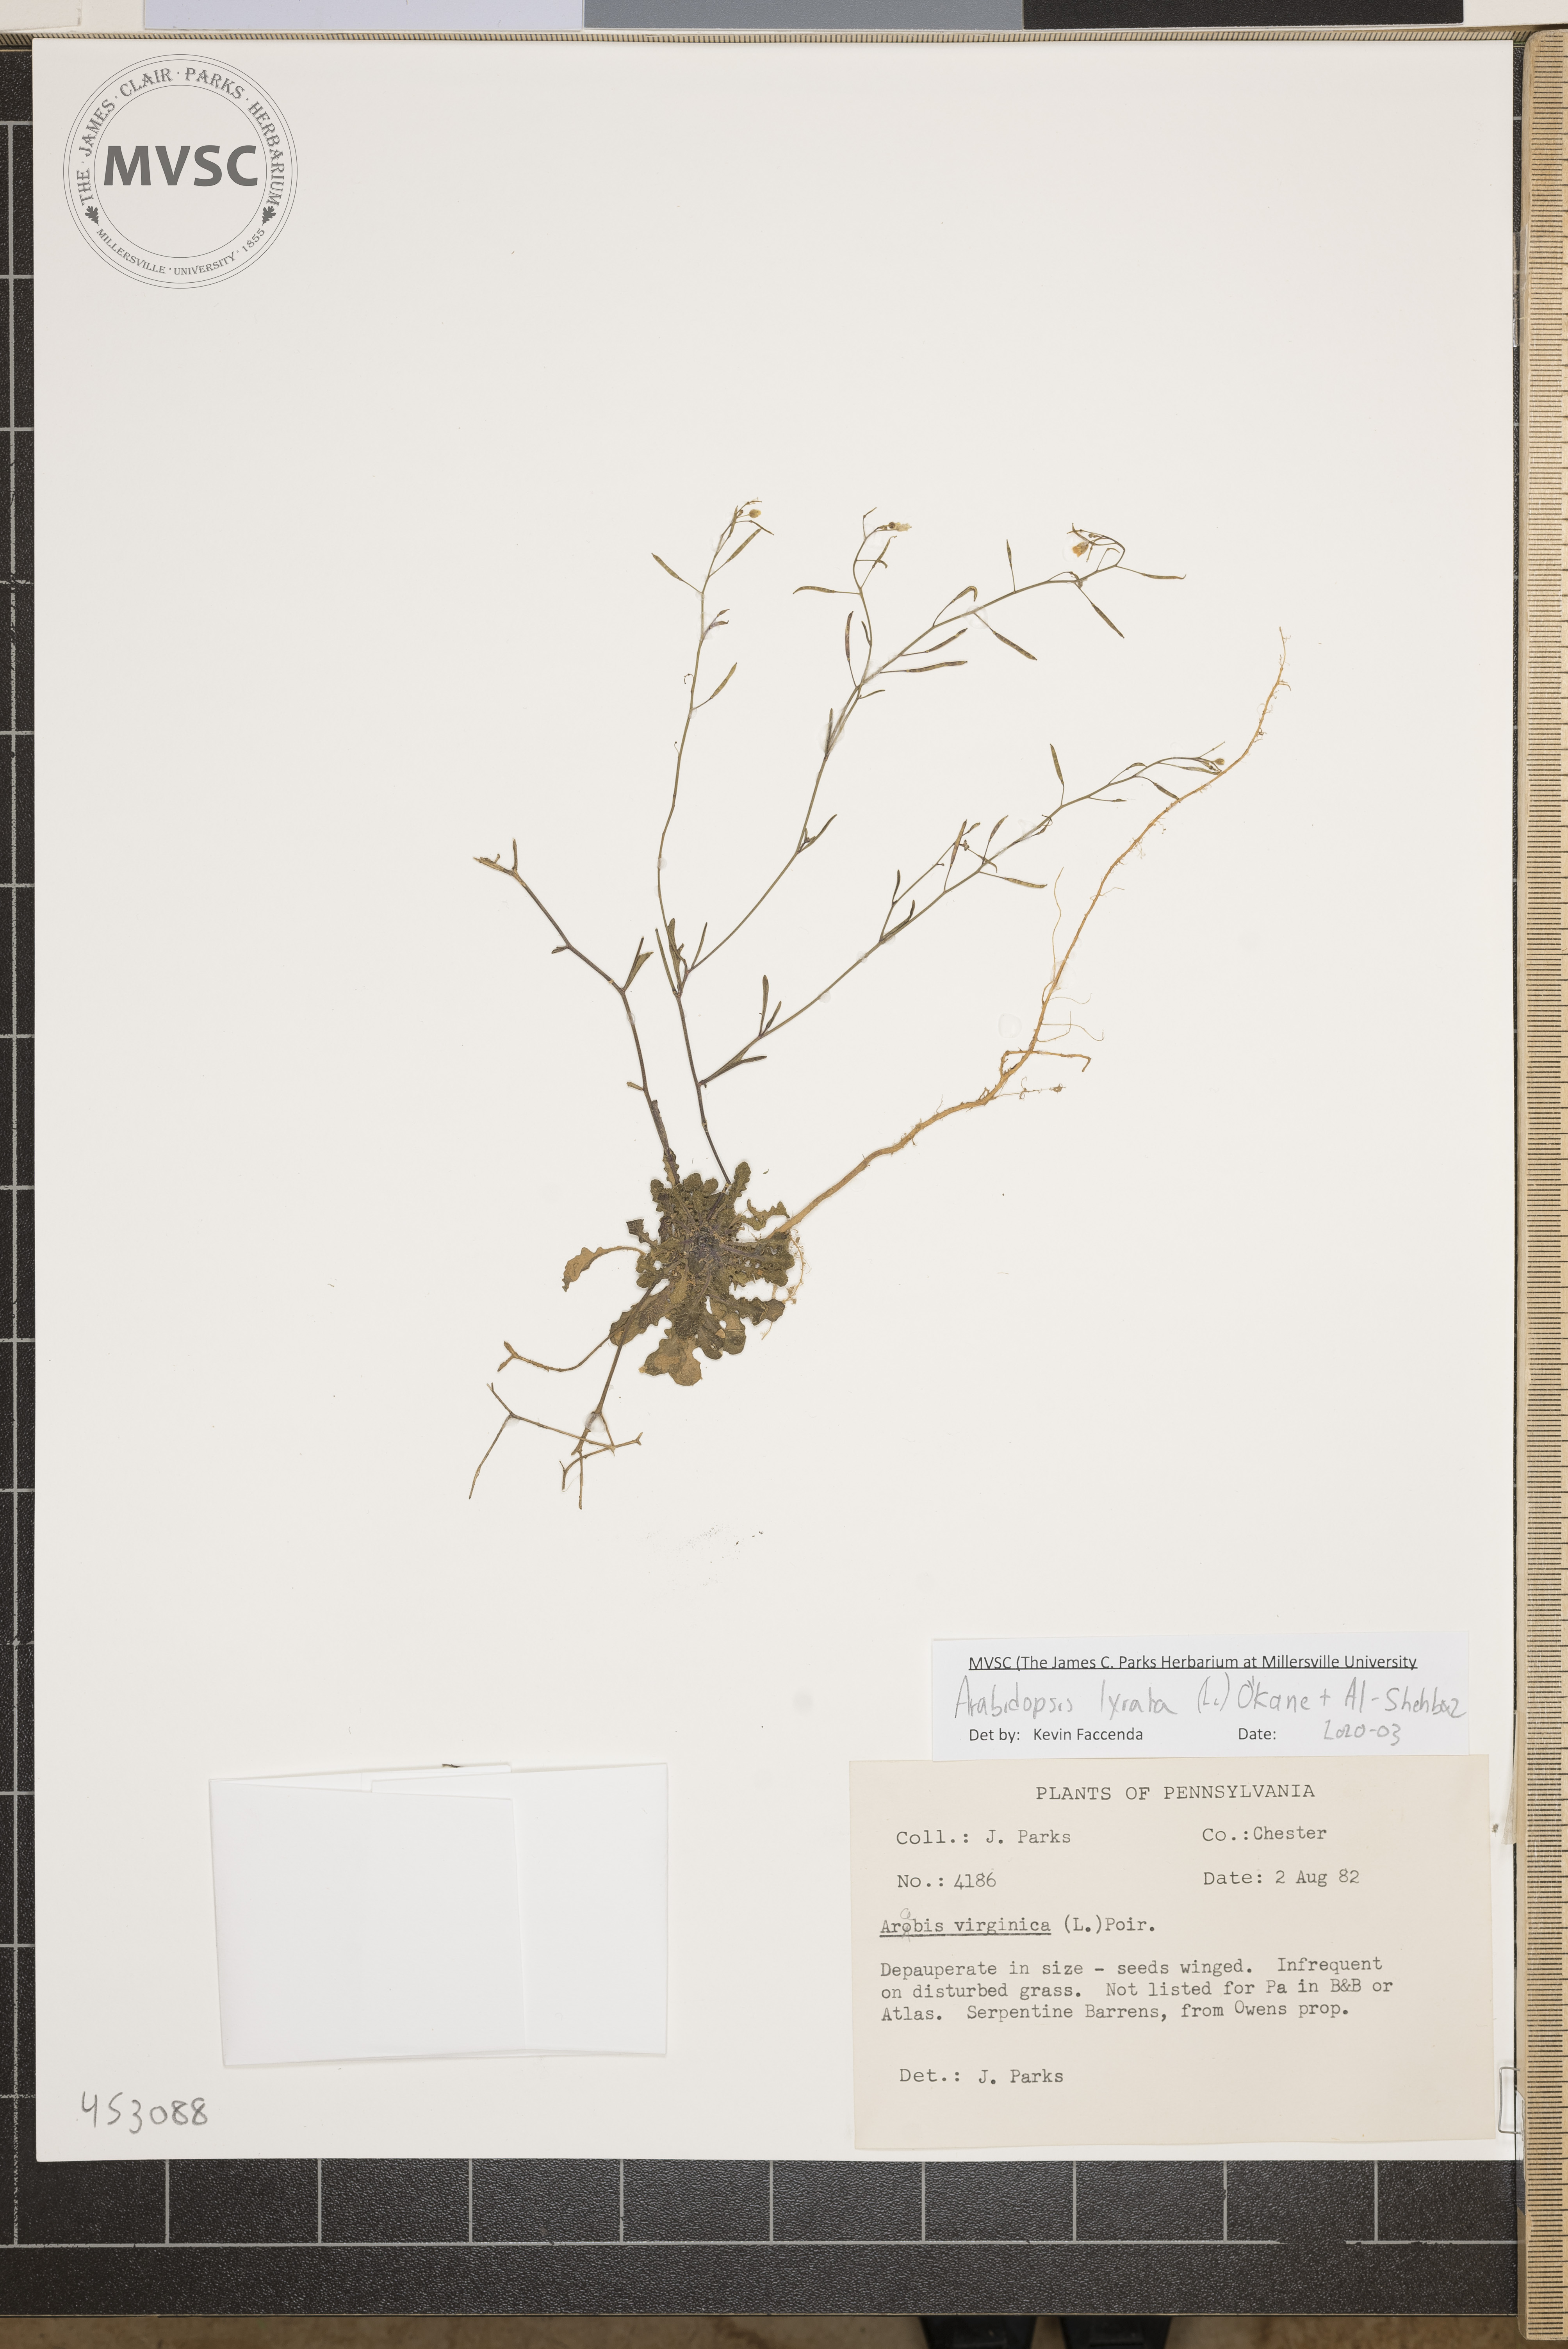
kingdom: Plantae
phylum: Tracheophyta
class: Magnoliopsida
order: Brassicales
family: Brassicaceae
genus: Arabidopsis
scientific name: Arabidopsis lyrata
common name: Lyrate rockcress
